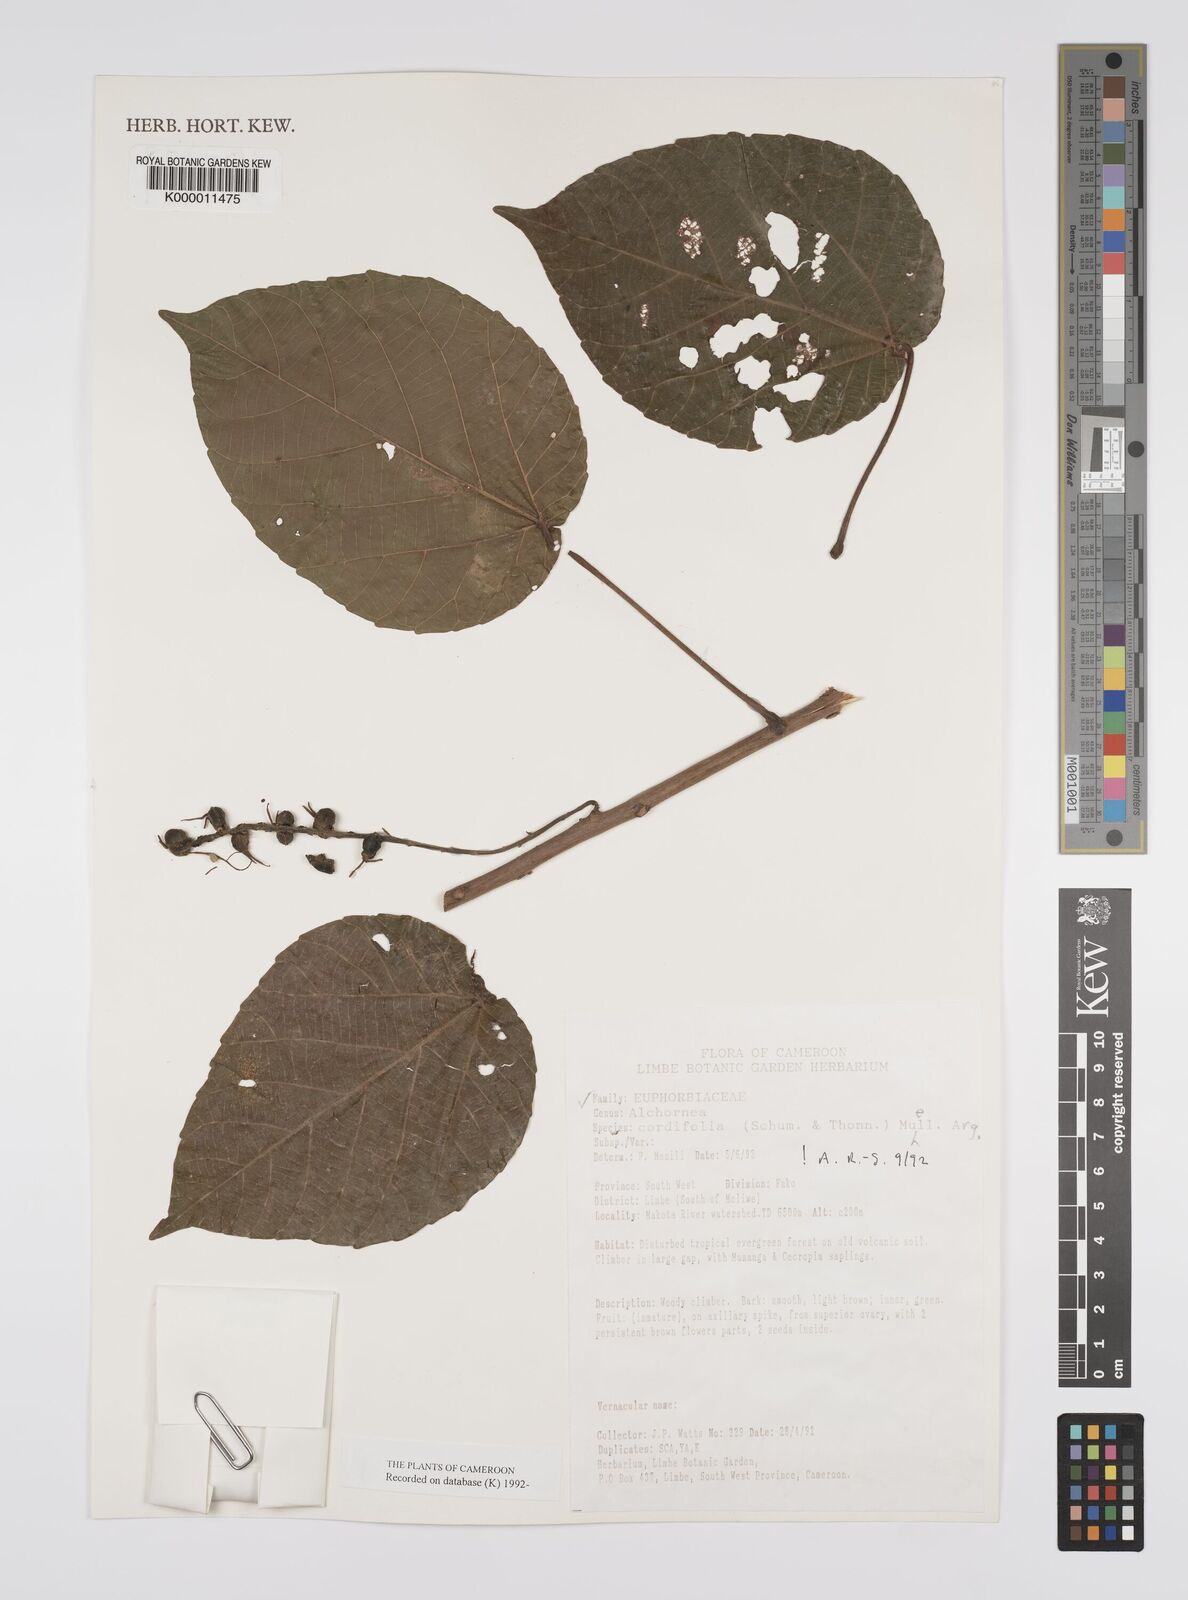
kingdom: Plantae
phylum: Tracheophyta
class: Magnoliopsida
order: Malpighiales
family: Euphorbiaceae
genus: Alchornea
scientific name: Alchornea
